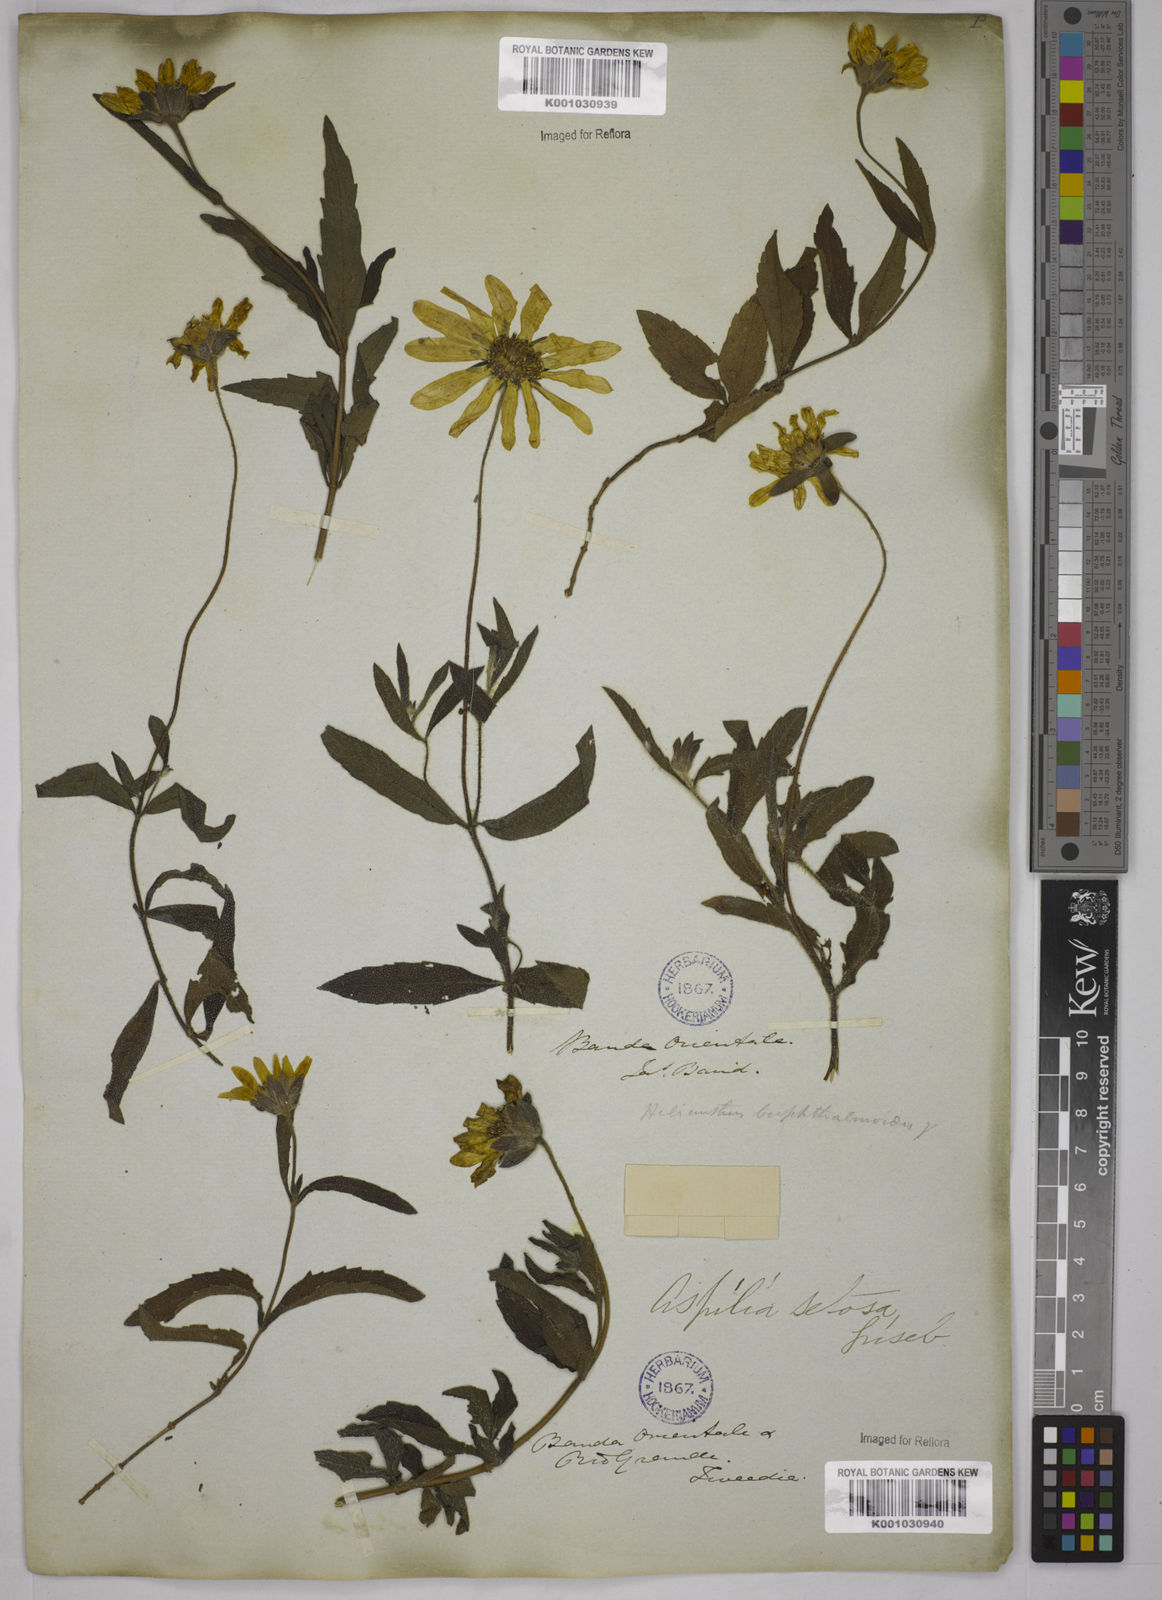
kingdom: Plantae
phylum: Tracheophyta
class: Magnoliopsida
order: Asterales
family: Asteraceae
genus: Aspilia
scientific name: Aspilia
